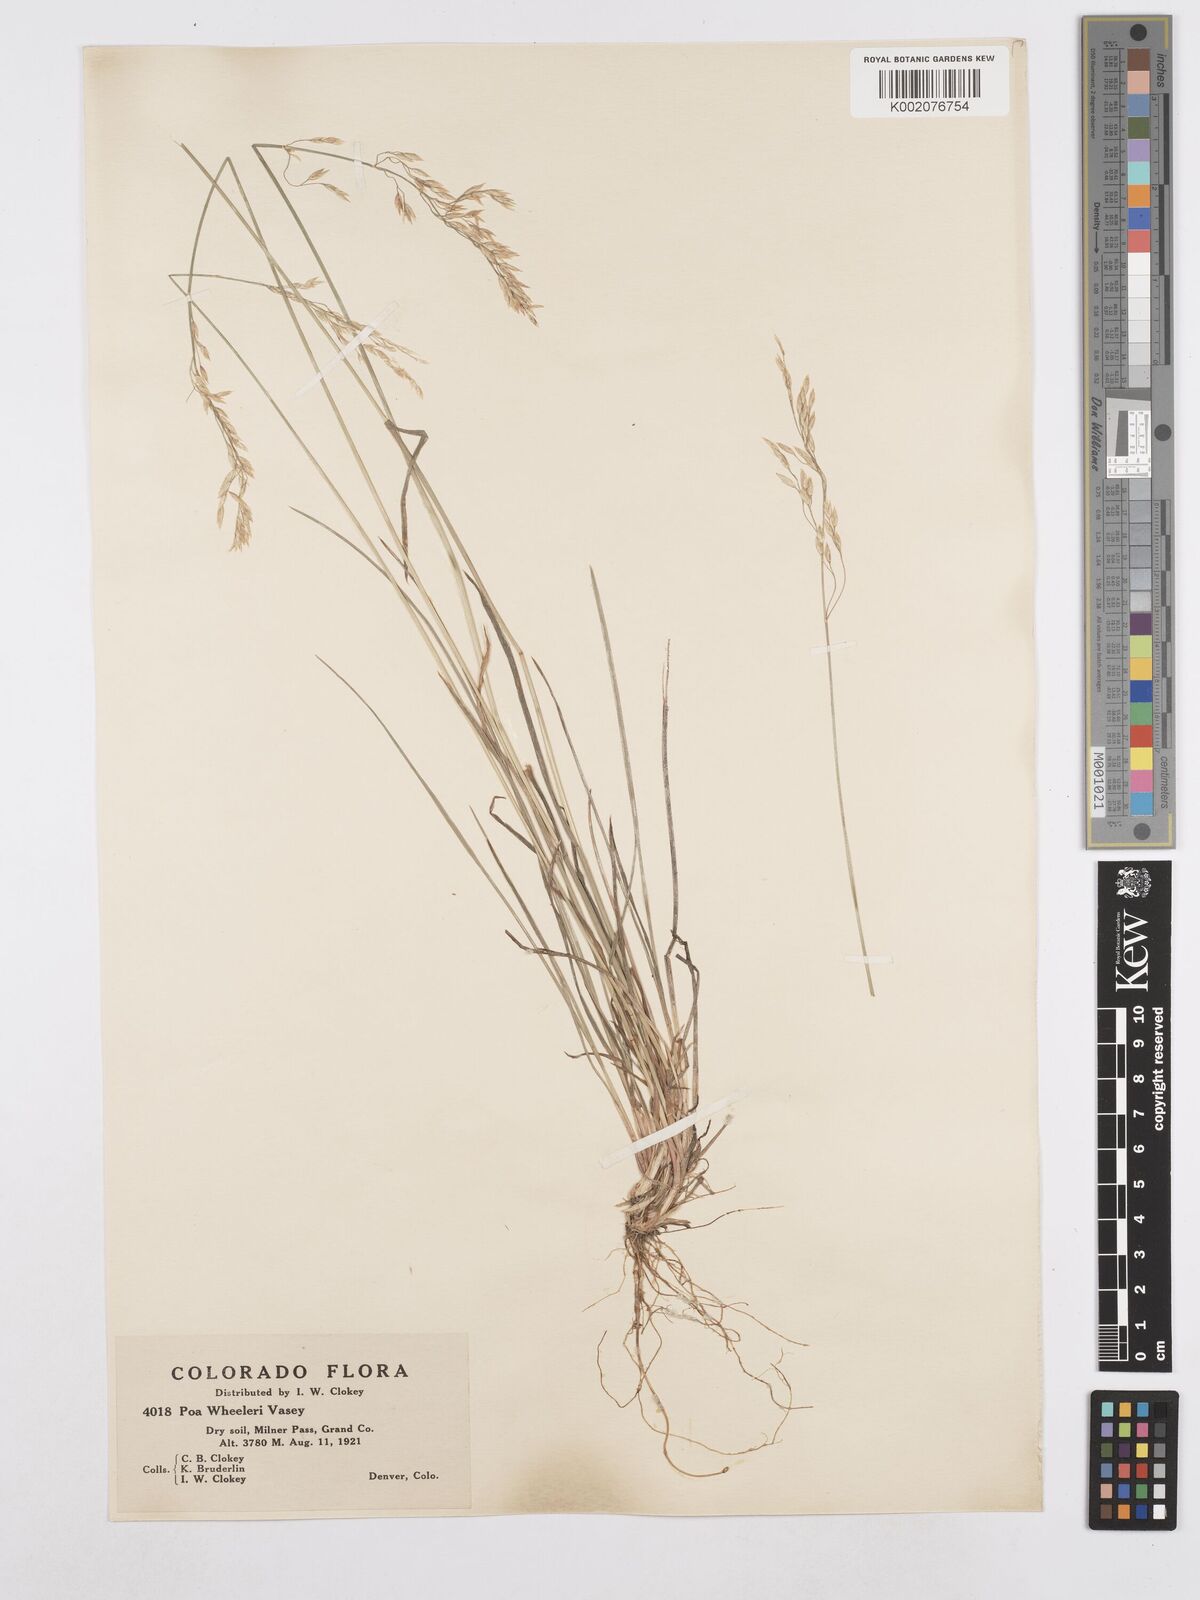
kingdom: Plantae
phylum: Tracheophyta
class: Liliopsida
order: Poales
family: Poaceae
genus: Poa
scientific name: Poa wheeleri
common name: Wheeler's bluegrass
